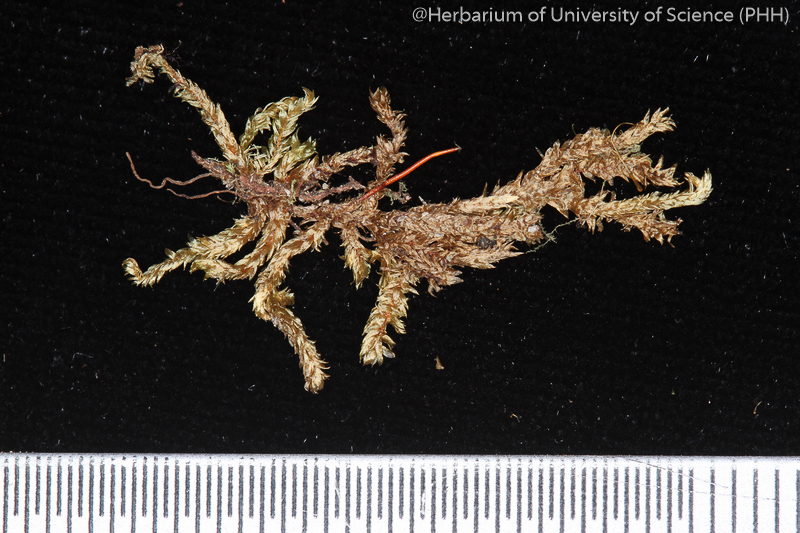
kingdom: Plantae
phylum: Bryophyta
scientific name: Bryophyta
